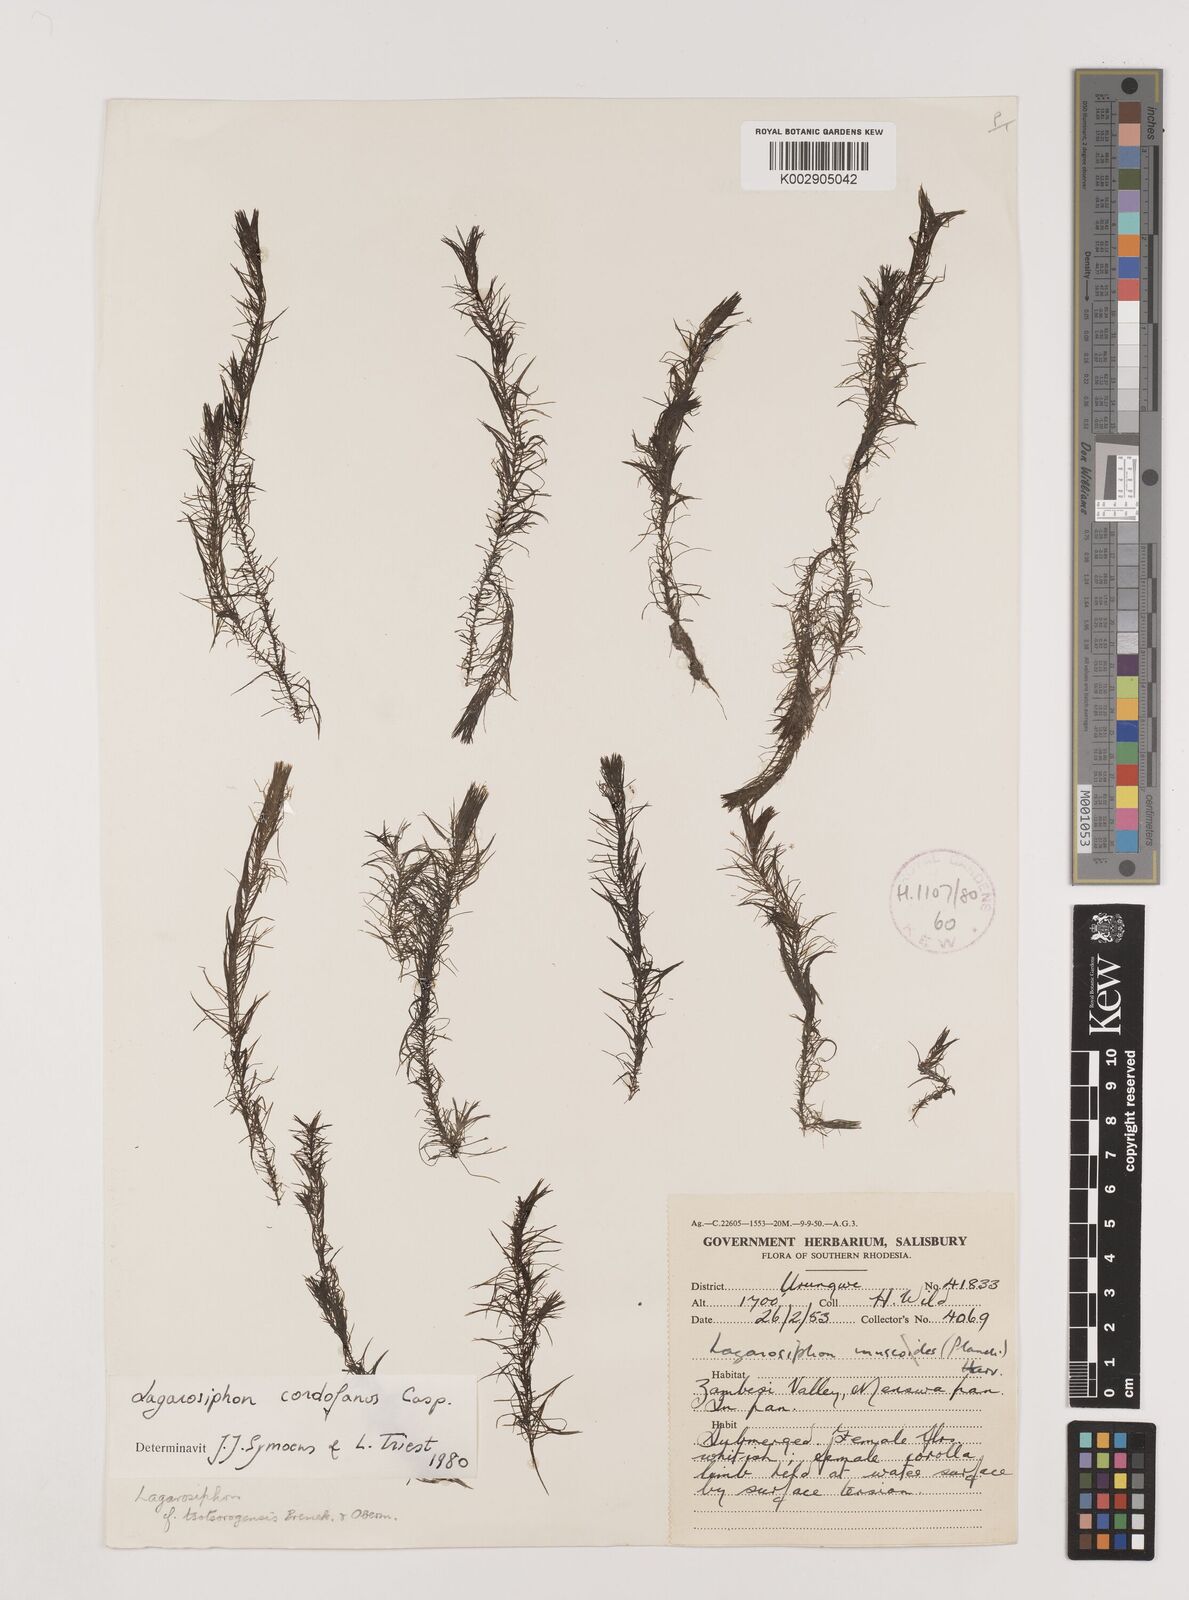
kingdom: Plantae
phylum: Tracheophyta
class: Liliopsida
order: Alismatales
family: Hydrocharitaceae
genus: Lagarosiphon
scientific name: Lagarosiphon cordofanus
